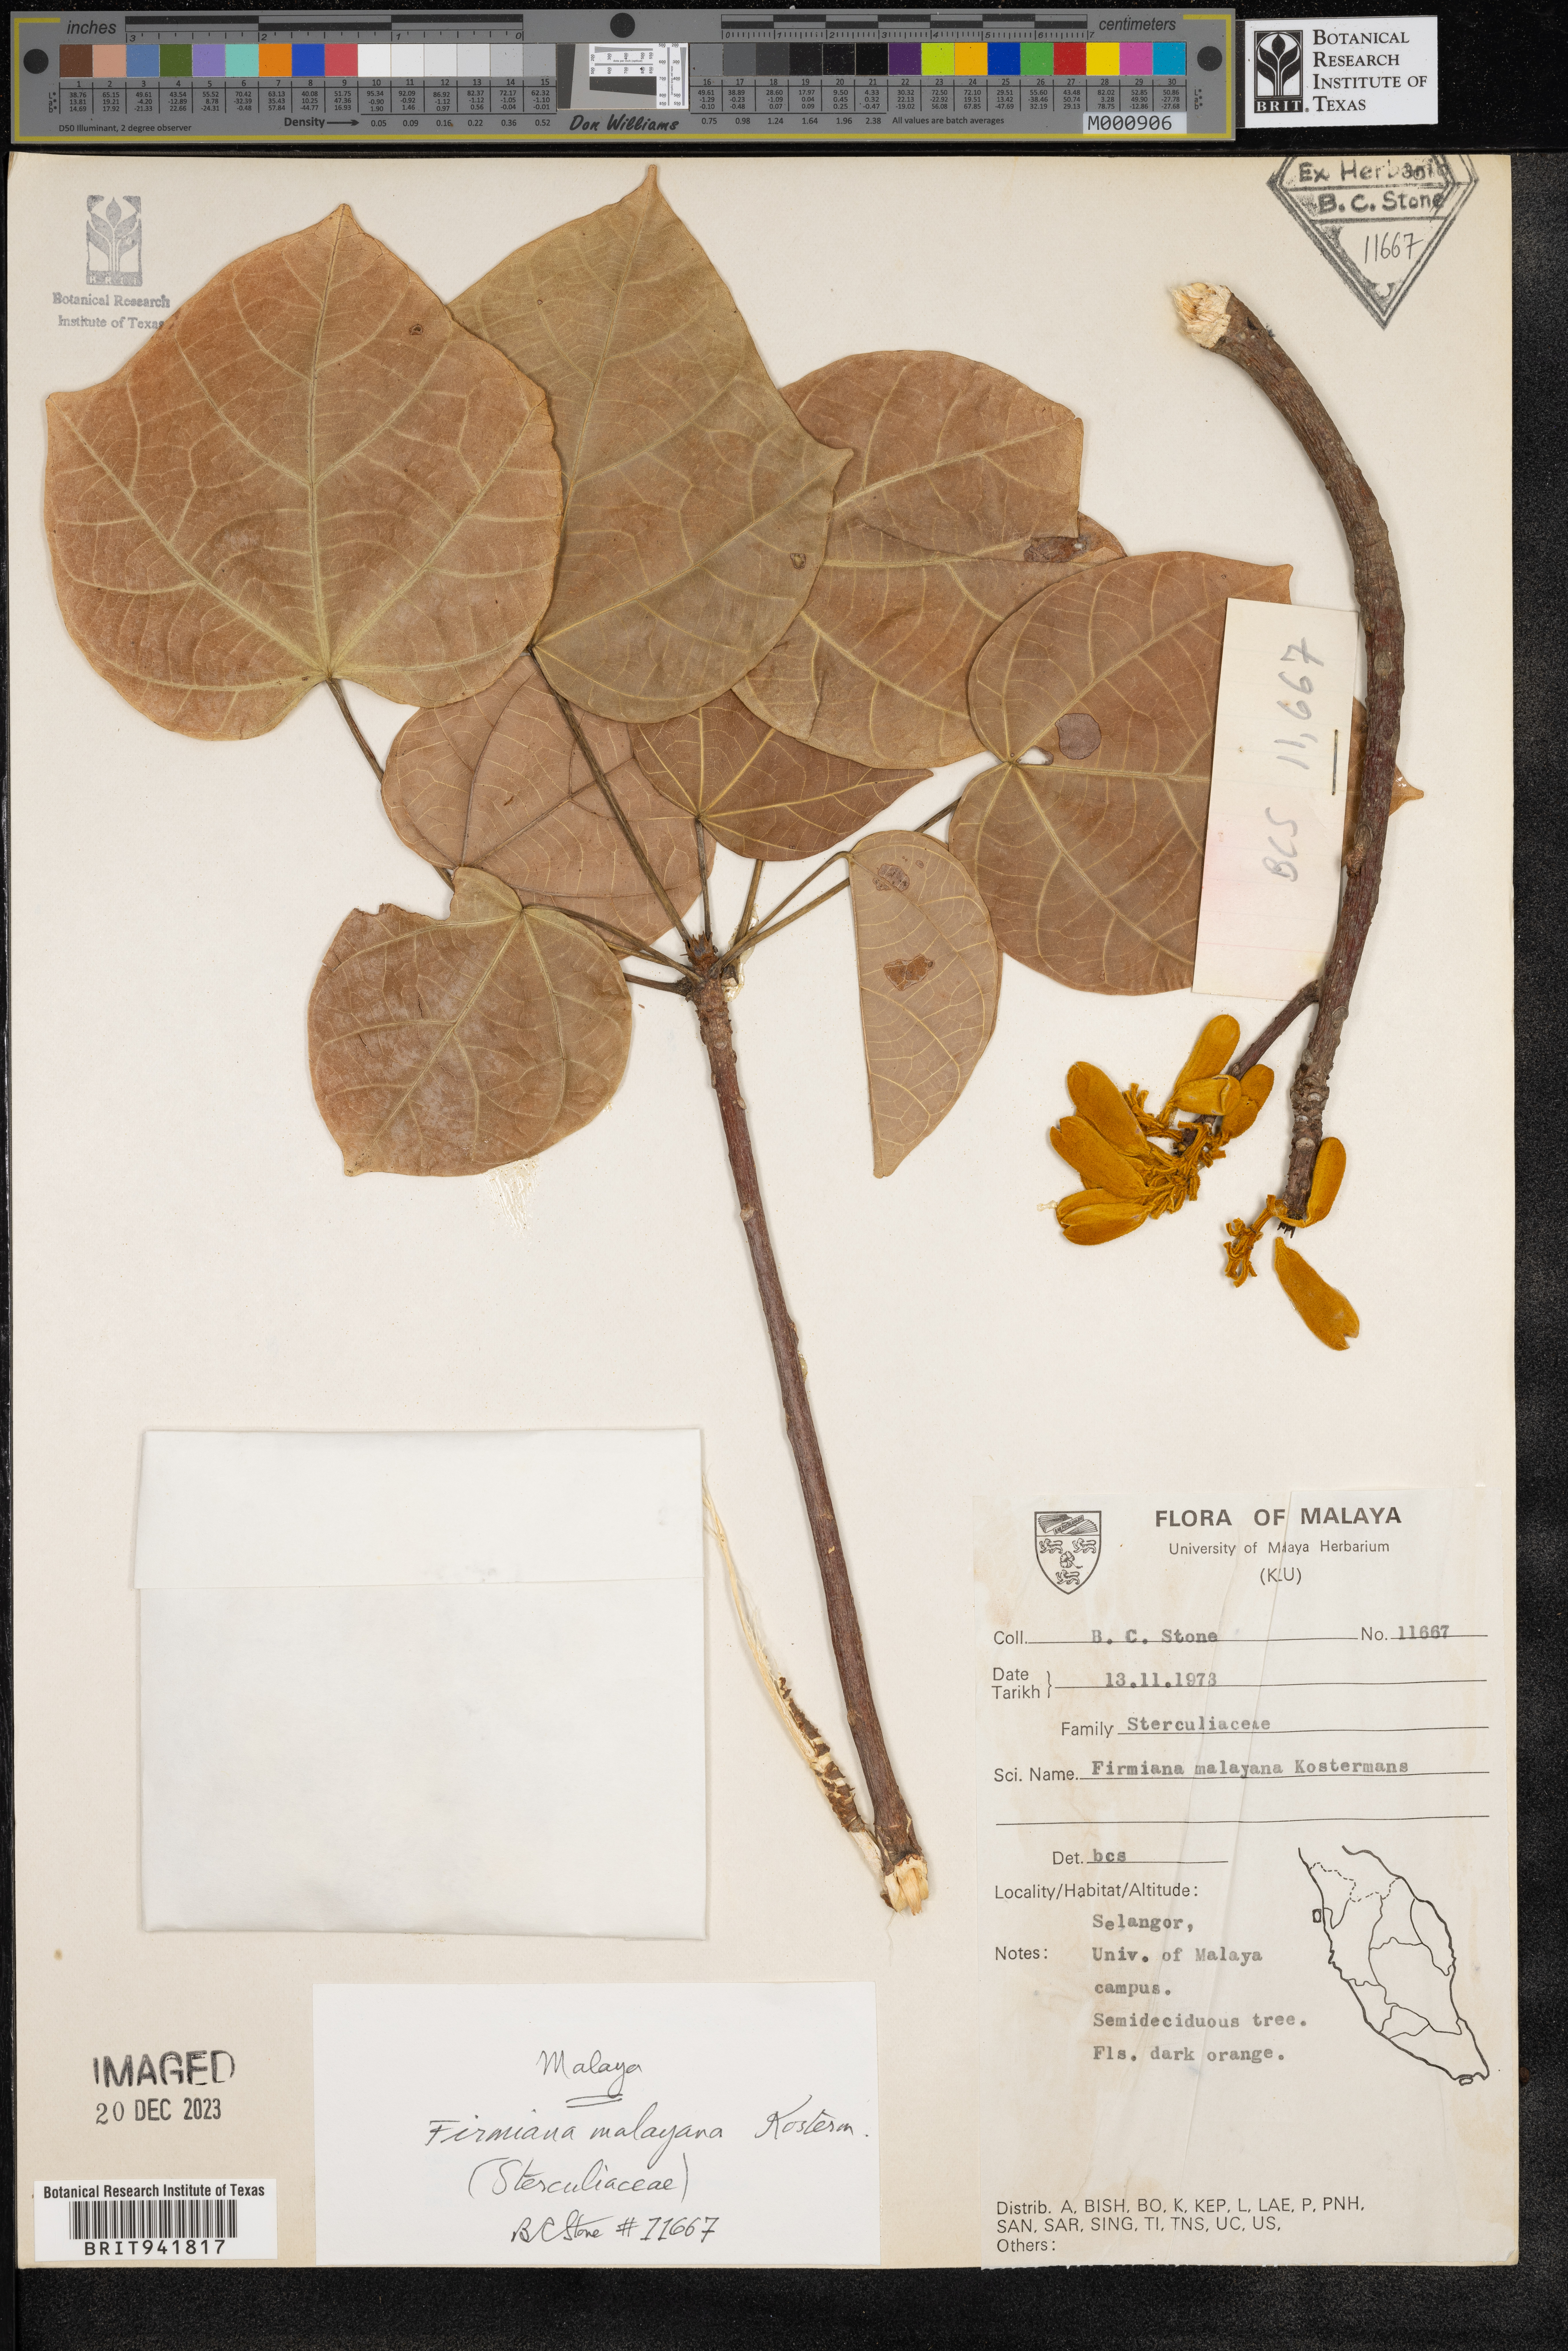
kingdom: Plantae
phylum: Tracheophyta
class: Magnoliopsida
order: Malvales
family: Malvaceae
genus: Firmiana
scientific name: Firmiana
